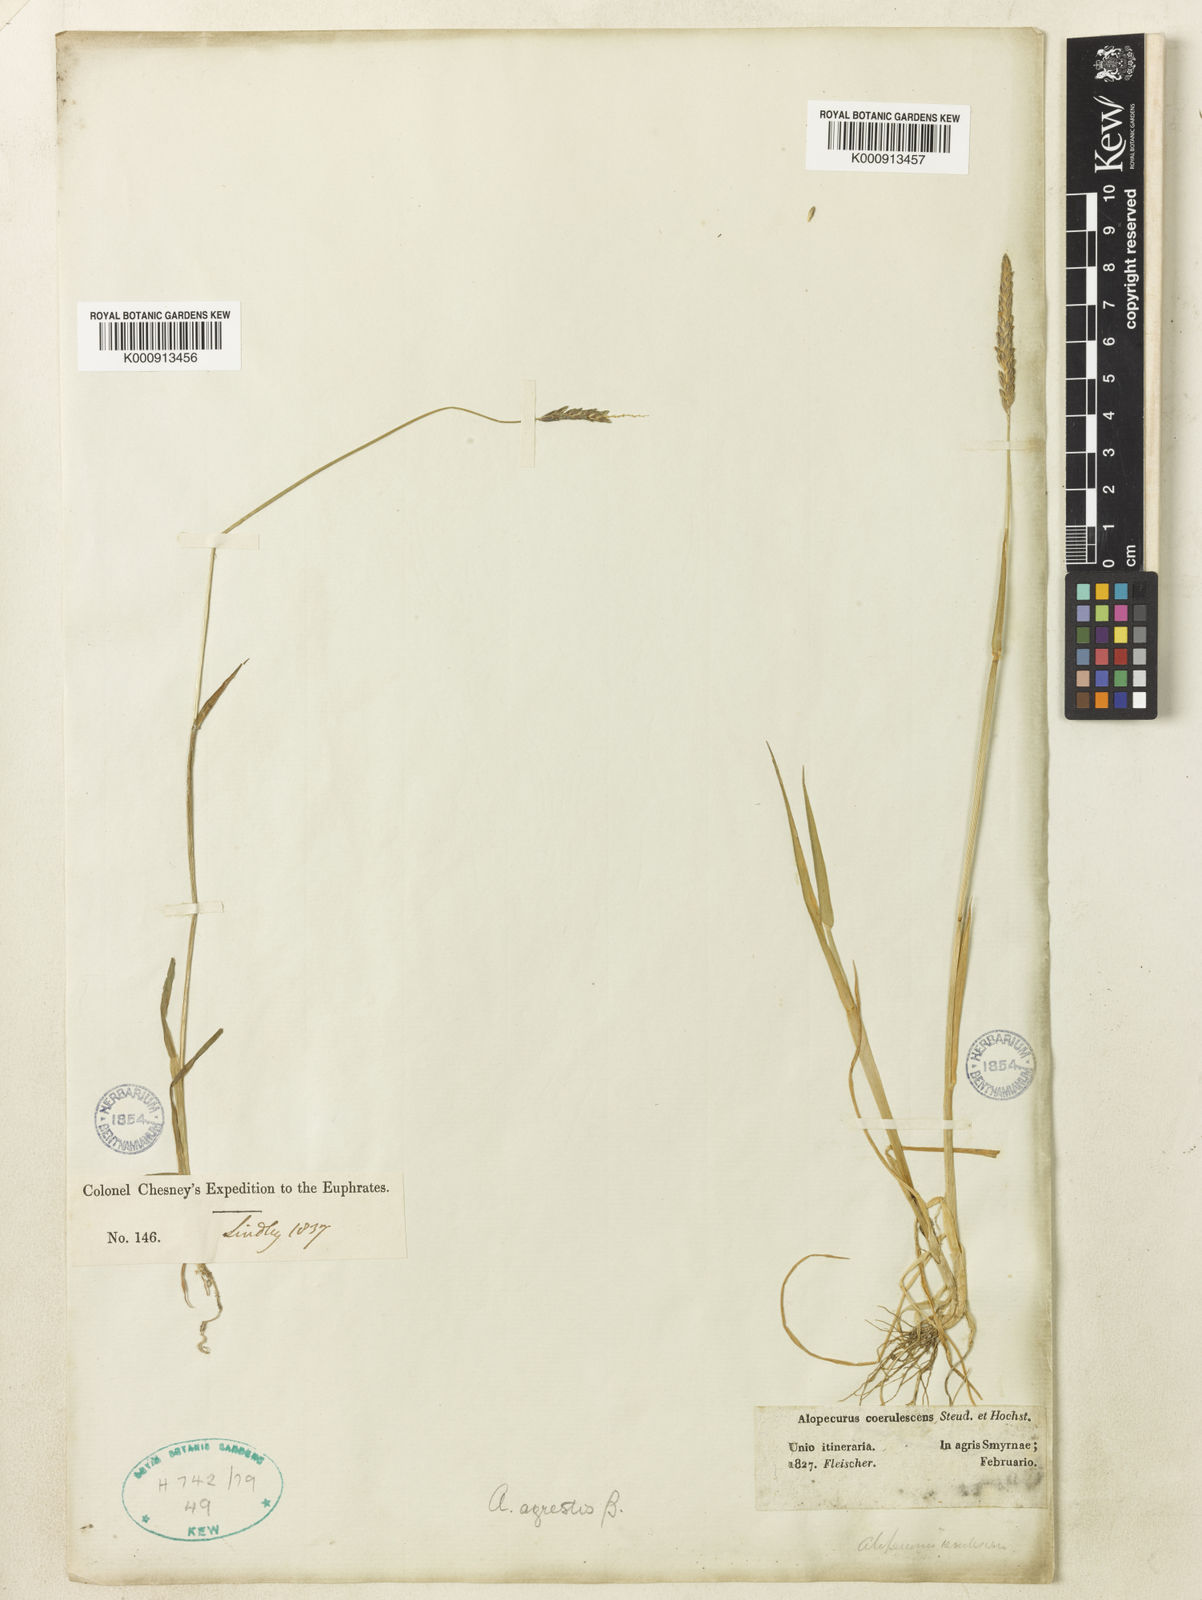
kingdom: Plantae
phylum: Tracheophyta
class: Liliopsida
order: Poales
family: Poaceae
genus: Alopecurus
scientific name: Alopecurus myosuroides
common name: Black-grass
